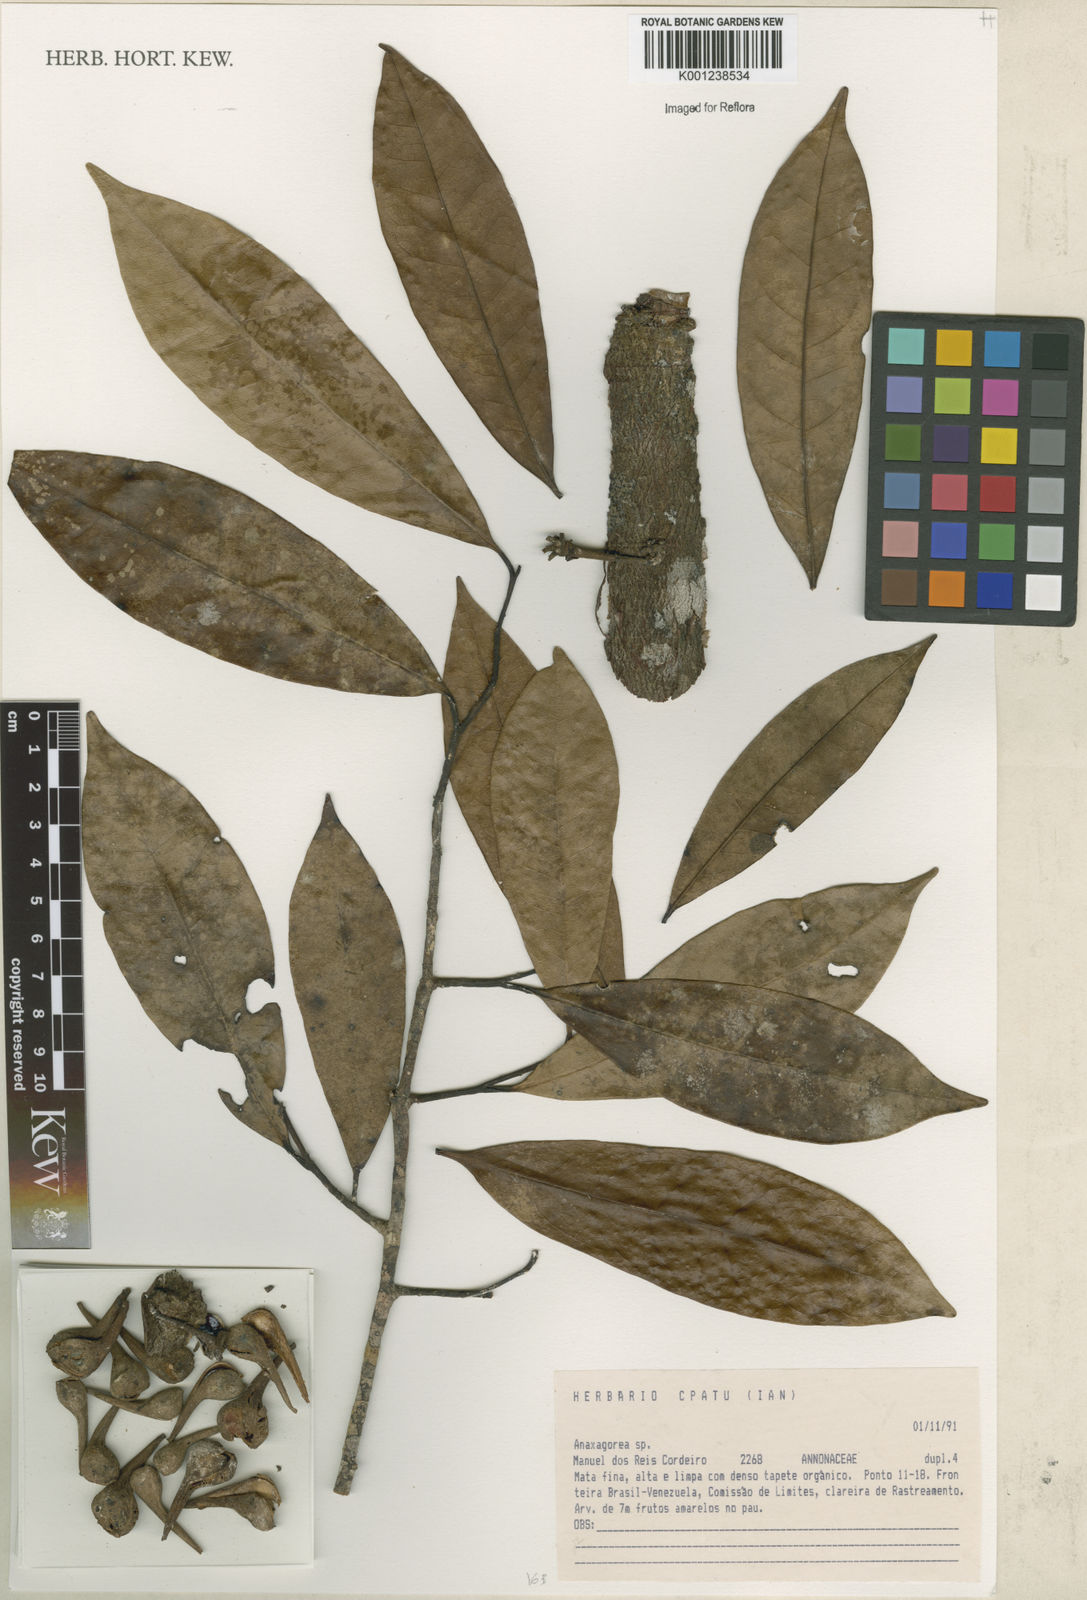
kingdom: Plantae
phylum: Tracheophyta
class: Magnoliopsida
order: Magnoliales
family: Annonaceae
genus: Anaxagorea
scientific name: Anaxagorea
